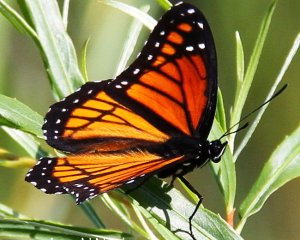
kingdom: Animalia
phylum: Arthropoda
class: Insecta
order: Lepidoptera
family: Nymphalidae
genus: Limenitis
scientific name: Limenitis archippus
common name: Viceroy
